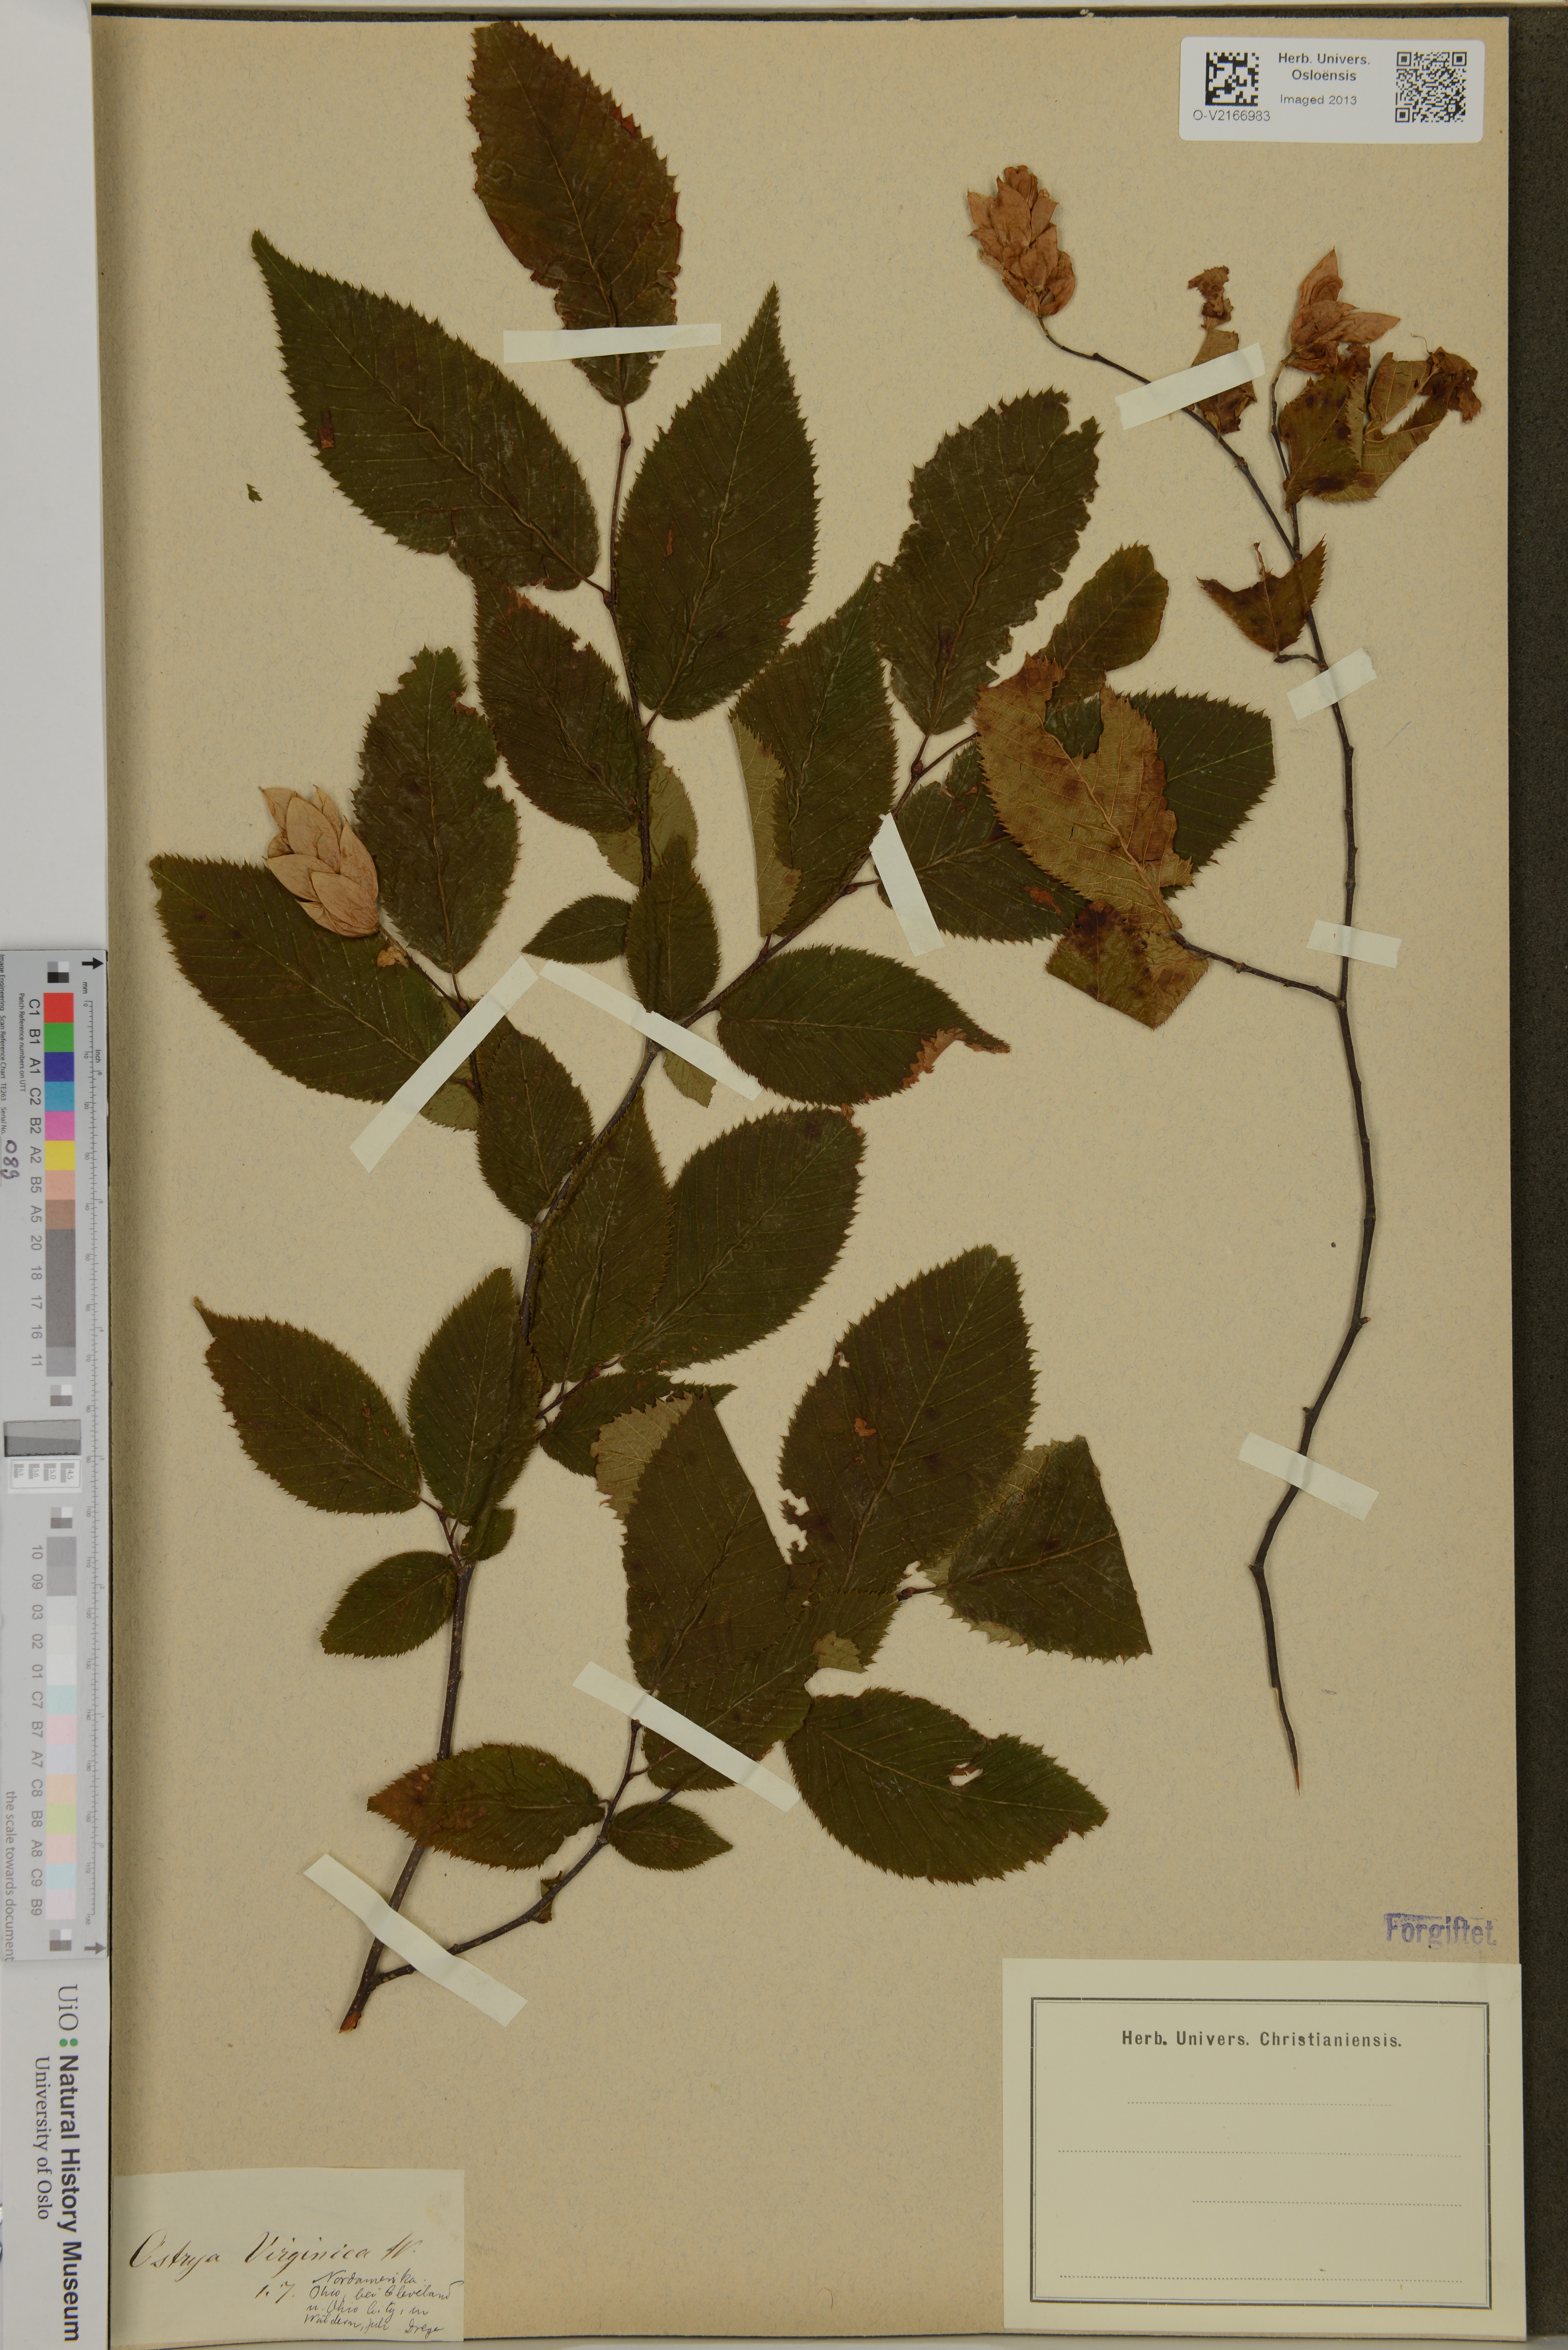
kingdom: Plantae
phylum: Tracheophyta
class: Magnoliopsida
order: Fagales
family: Betulaceae
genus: Ostrya
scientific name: Ostrya virginiana
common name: Ironwood
